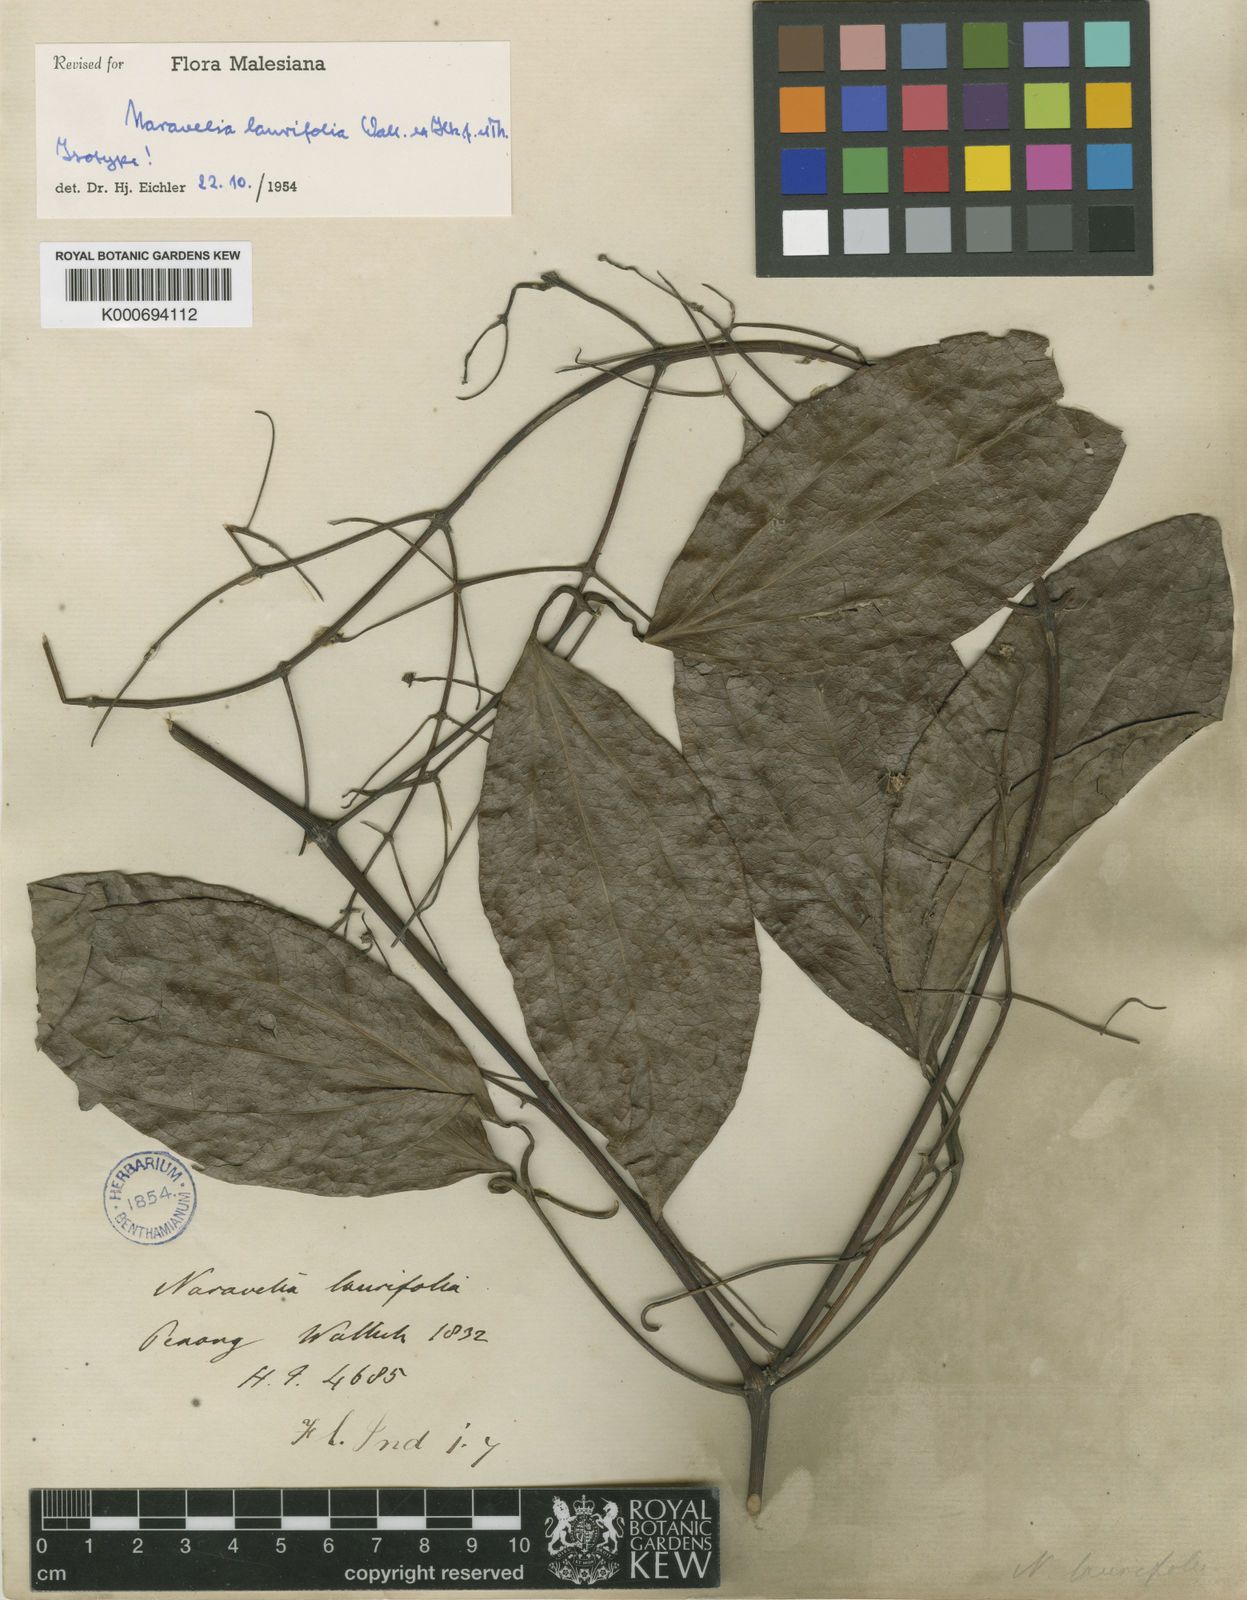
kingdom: Plantae
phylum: Tracheophyta
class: Magnoliopsida
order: Ranunculales
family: Ranunculaceae
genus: Clematis
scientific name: Clematis horripilata
